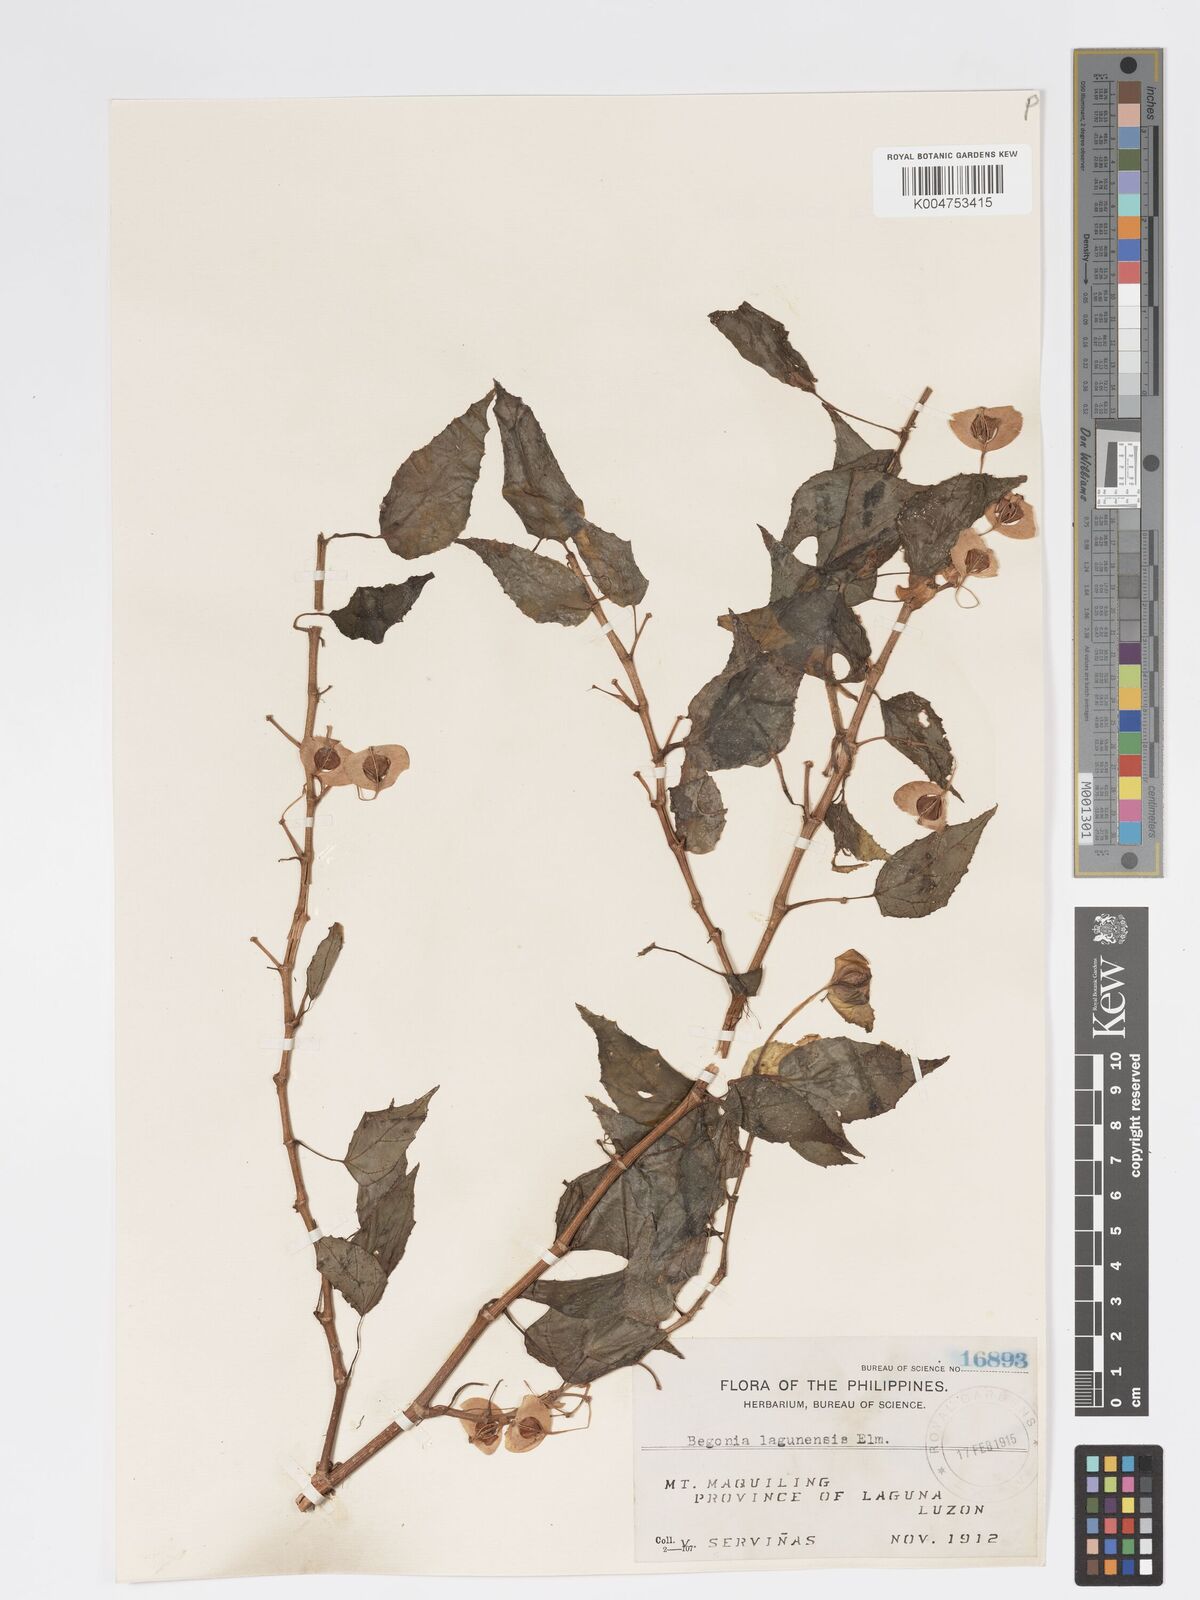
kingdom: Plantae
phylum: Tracheophyta
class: Magnoliopsida
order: Cucurbitales
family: Begoniaceae
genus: Begonia
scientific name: Begonia lagunensis
